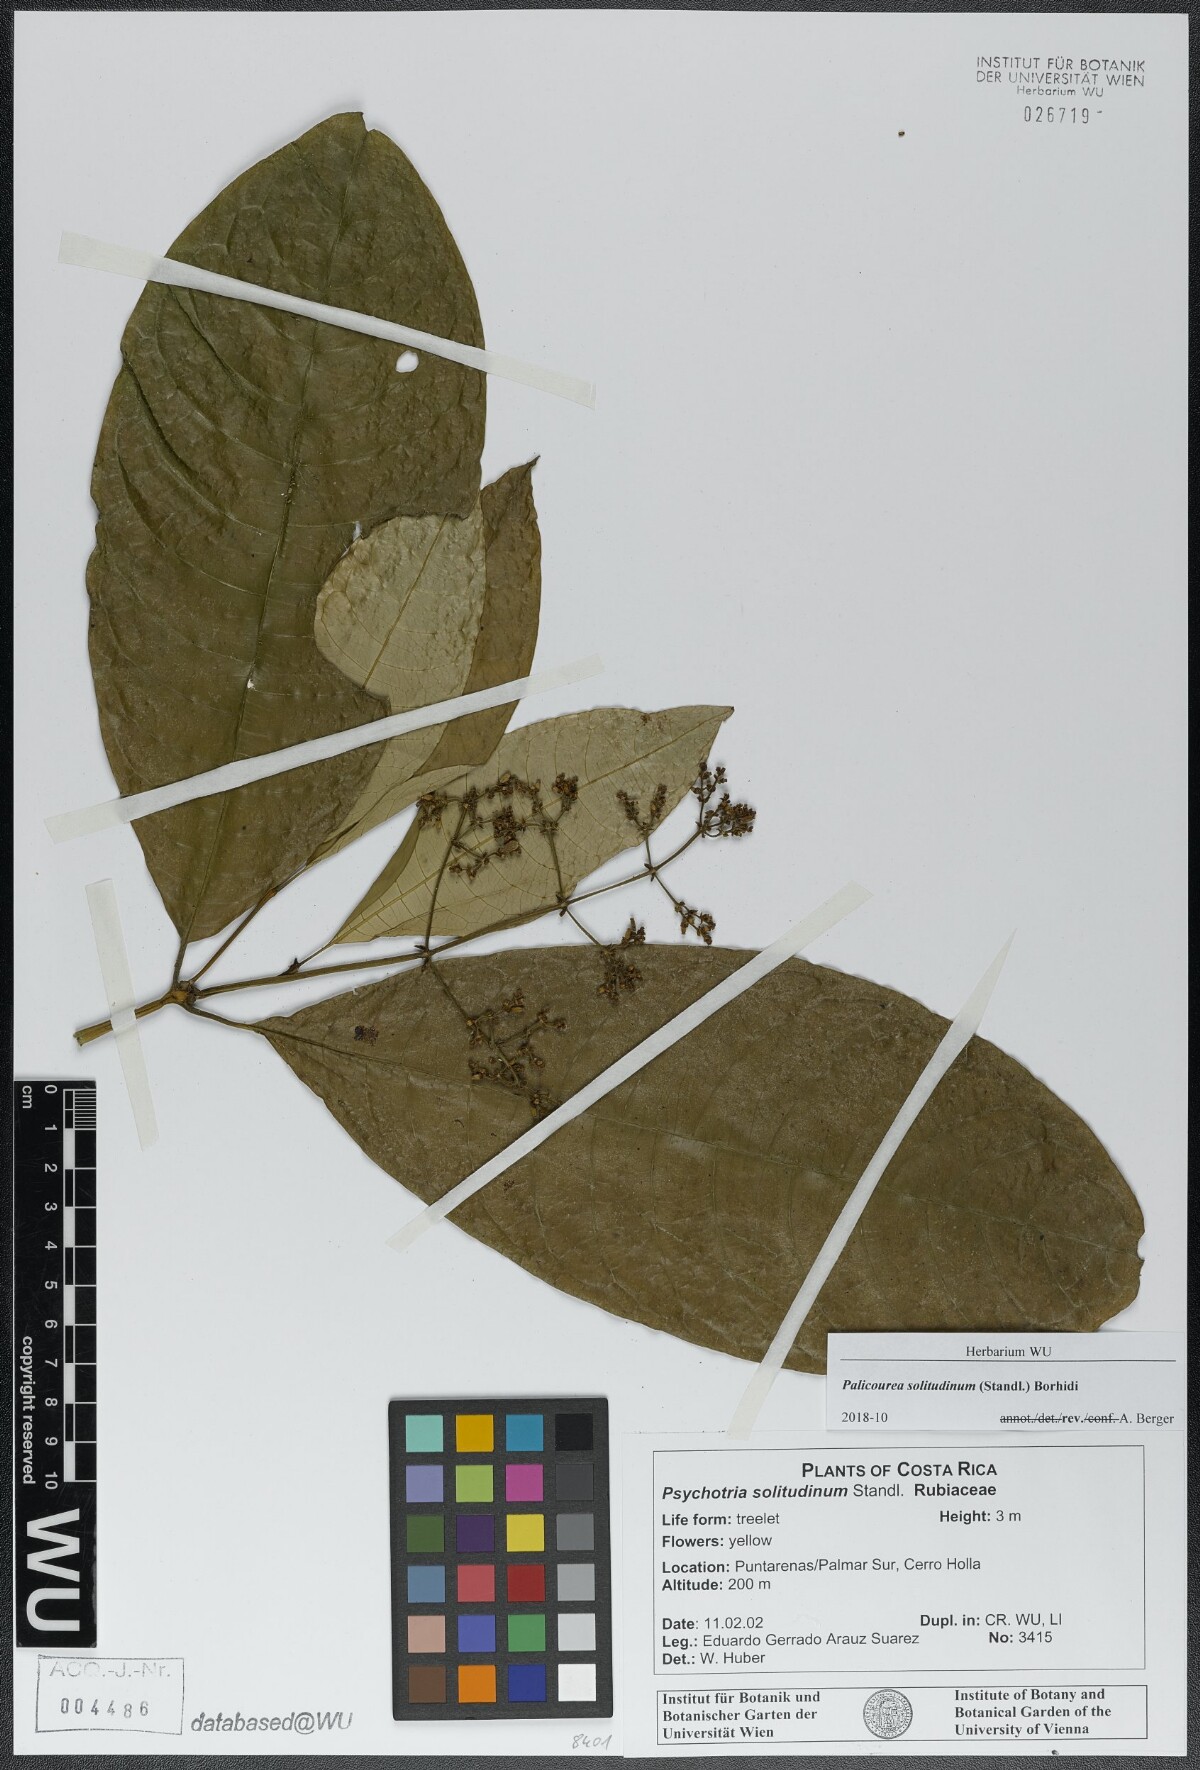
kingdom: Plantae
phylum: Tracheophyta
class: Magnoliopsida
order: Gentianales
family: Rubiaceae
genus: Palicourea
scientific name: Palicourea solitudinum
